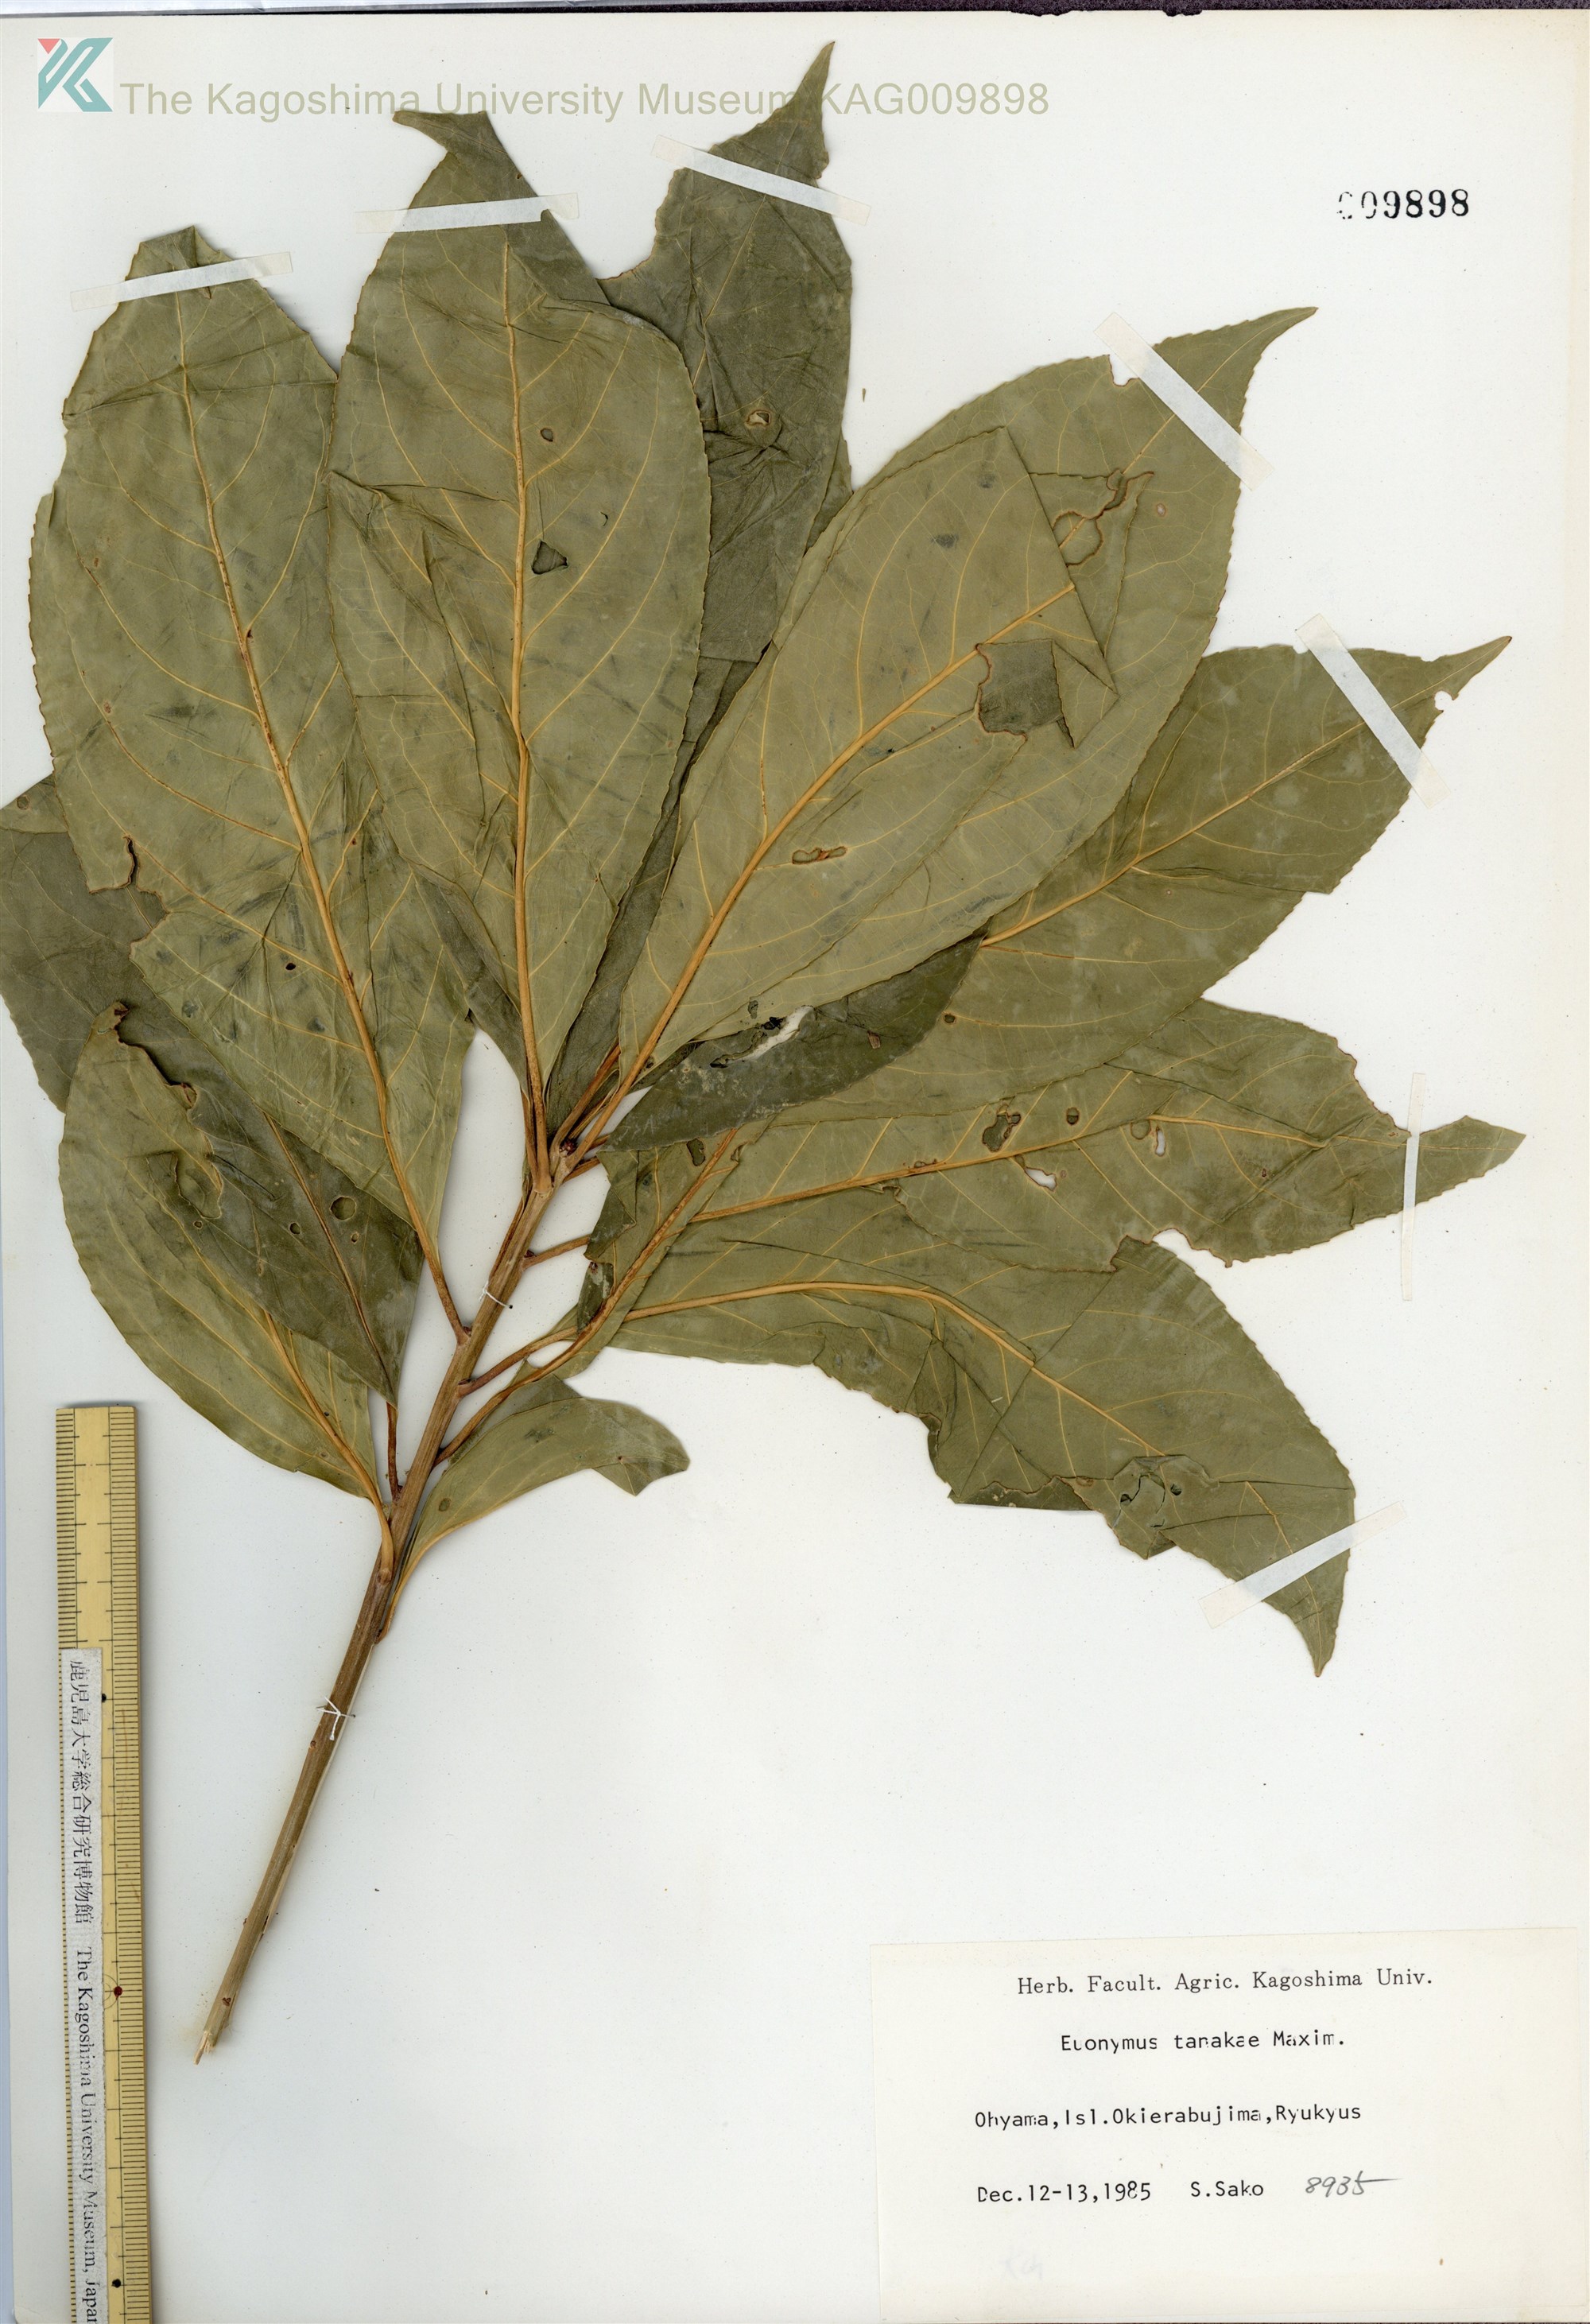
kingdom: Plantae
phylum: Tracheophyta
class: Magnoliopsida
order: Celastrales
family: Celastraceae
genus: Euonymus
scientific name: Euonymus carnosus
